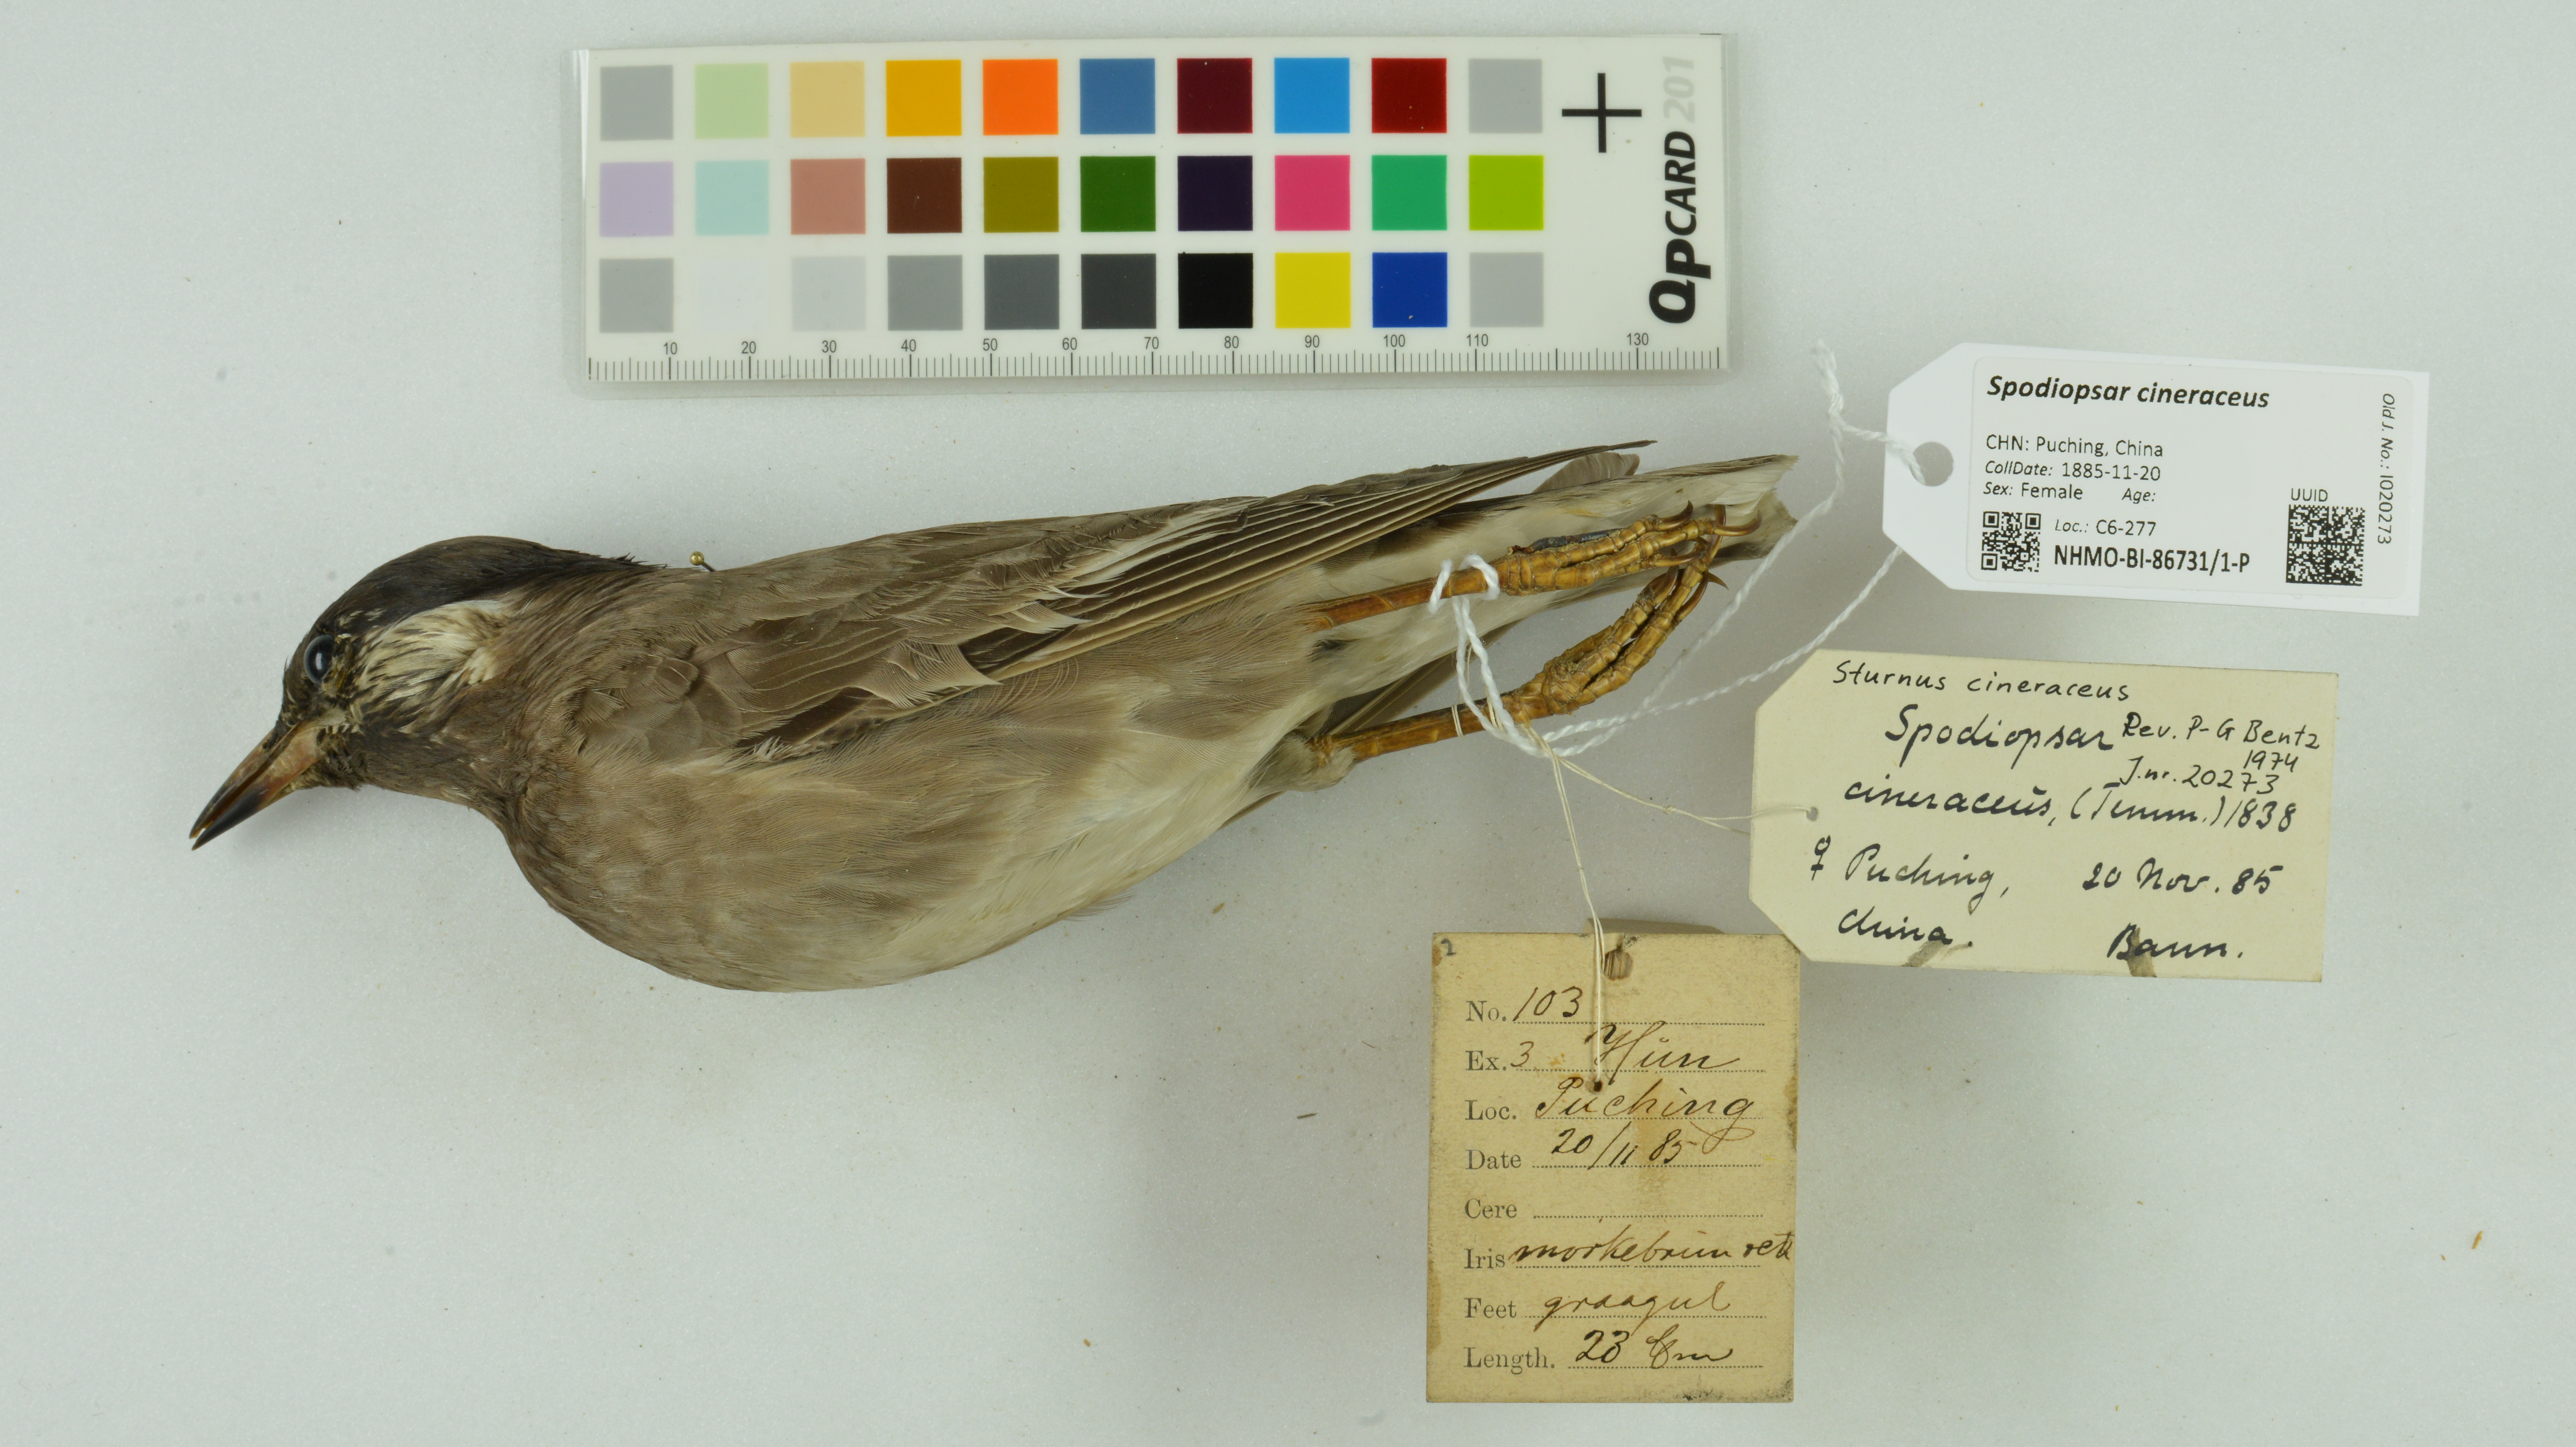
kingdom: Animalia
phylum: Chordata
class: Aves
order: Passeriformes
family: Sturnidae
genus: Spodiopsar
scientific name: Spodiopsar cineraceus
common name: White-cheeked starling
